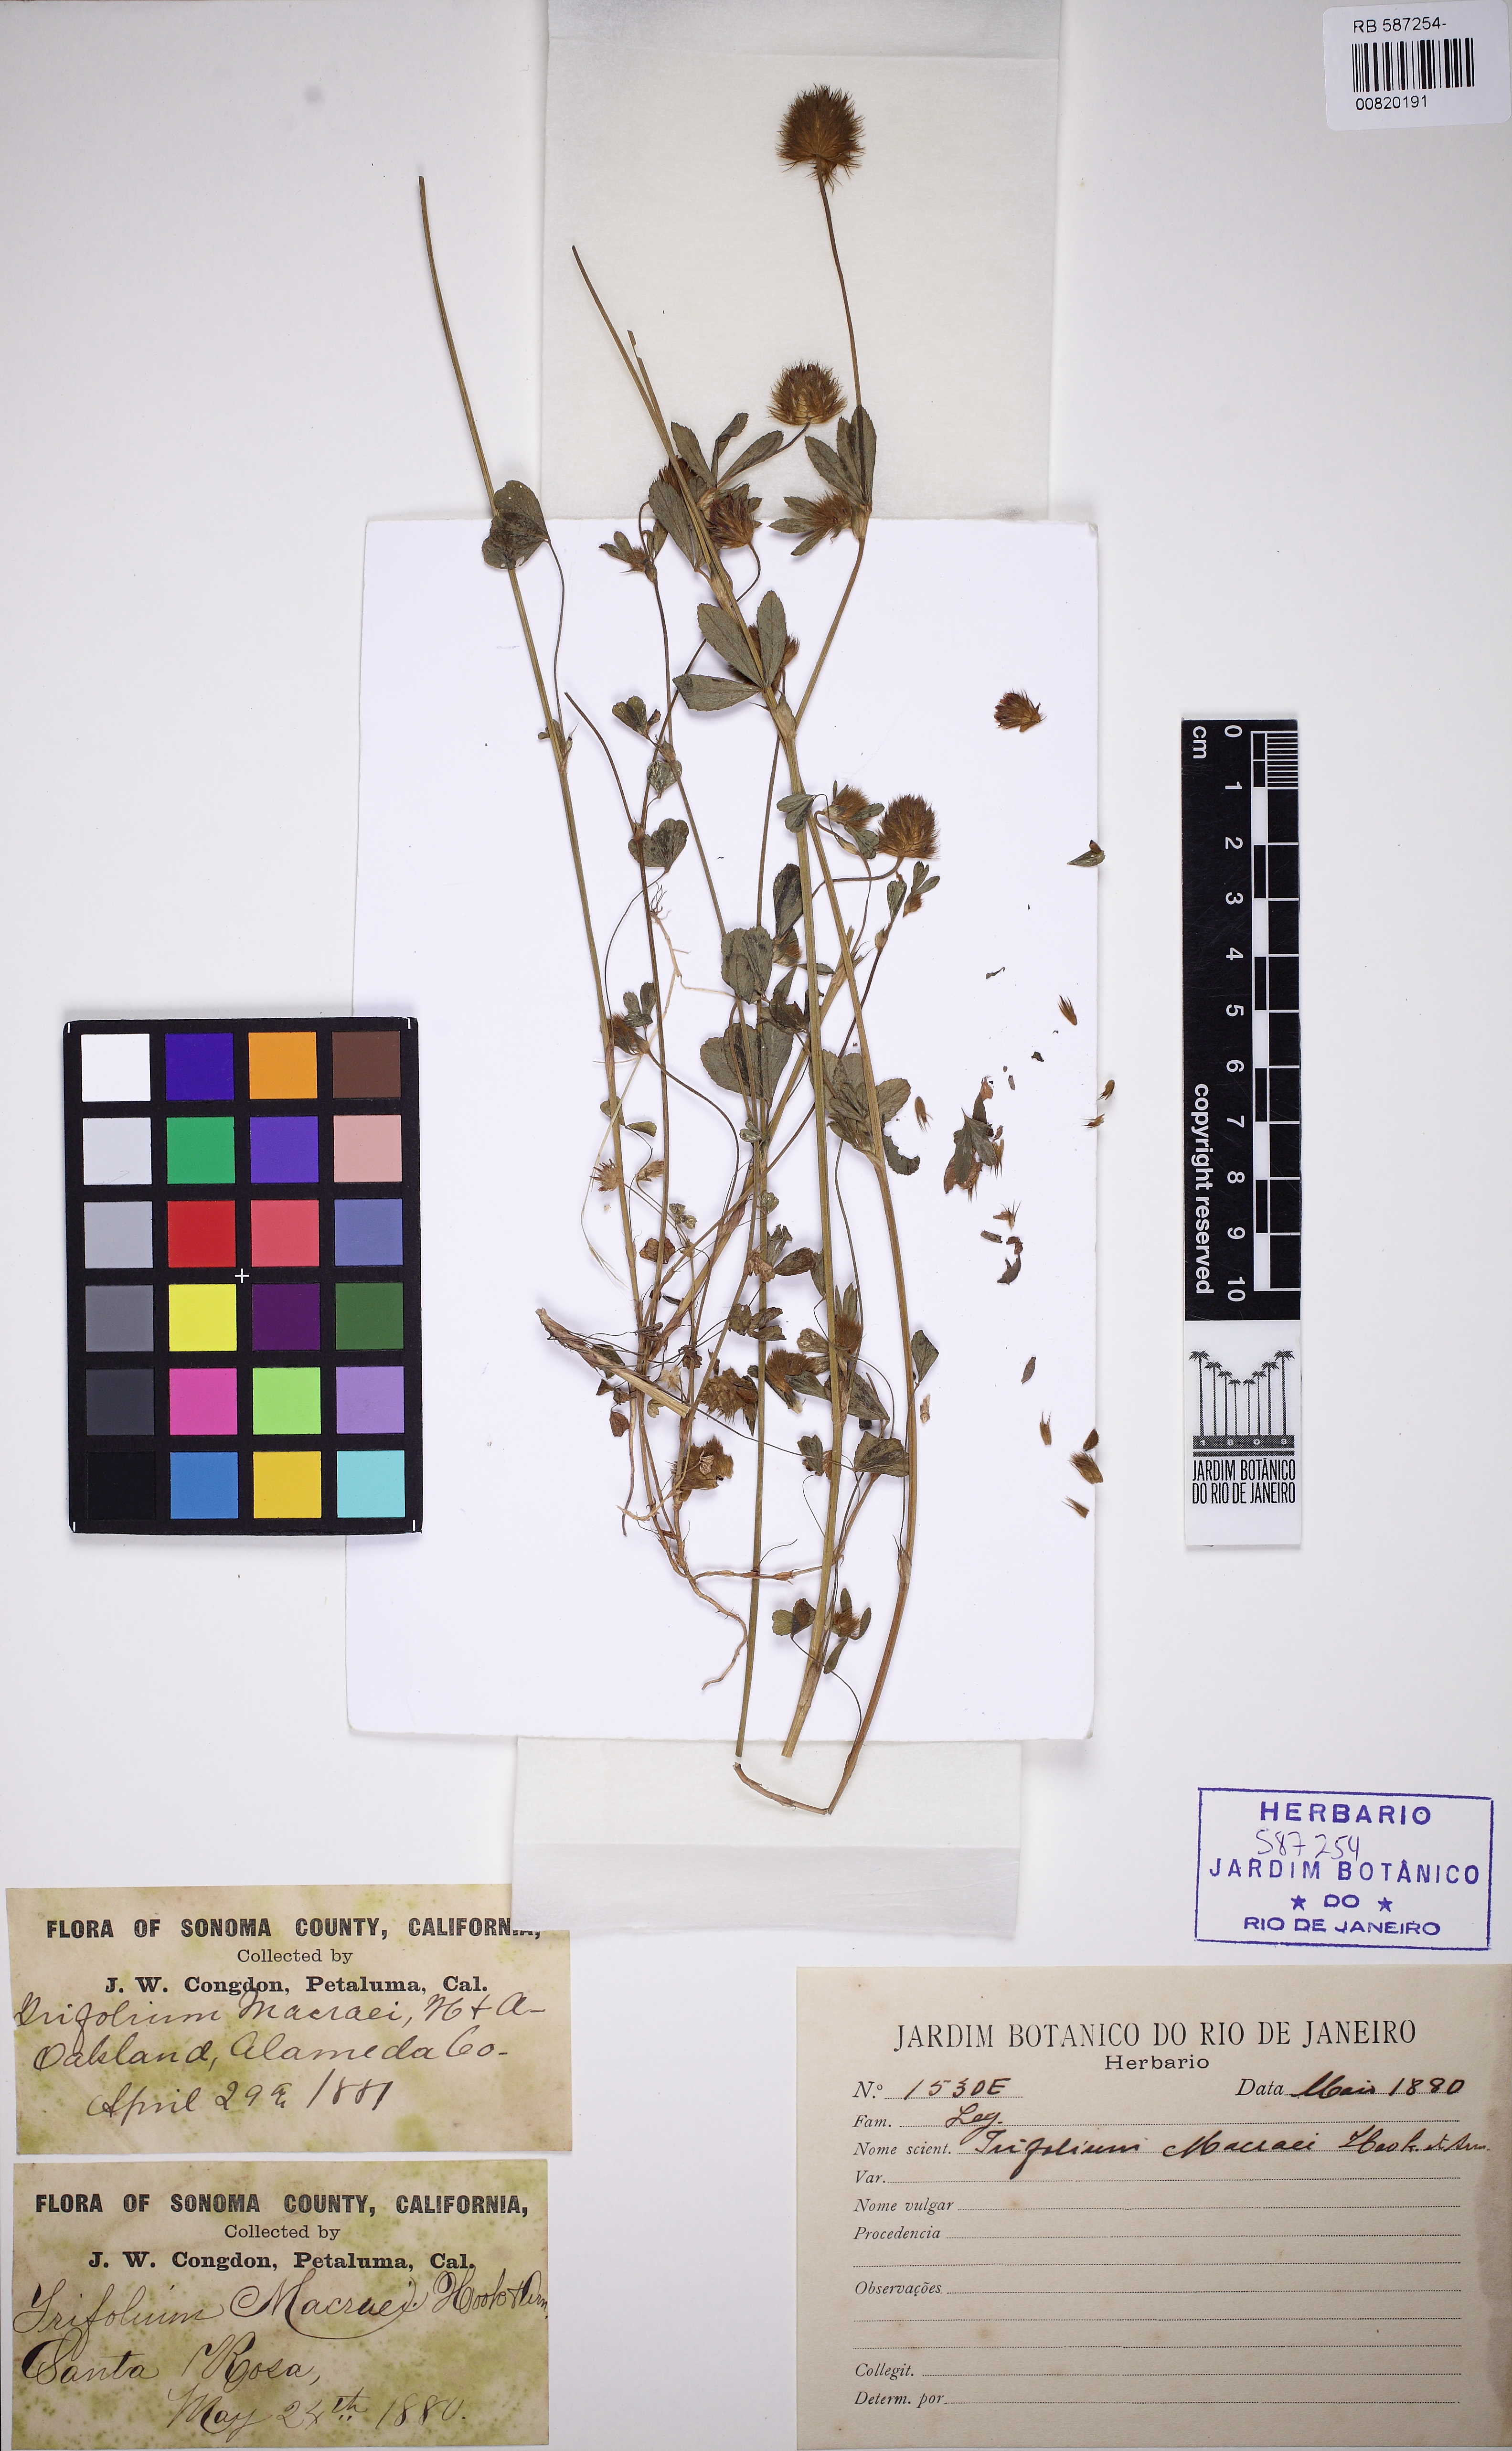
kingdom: Plantae
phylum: Tracheophyta
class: Magnoliopsida
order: Fabales
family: Fabaceae
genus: Trifolium
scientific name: Trifolium macraei
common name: Macrae's clover
